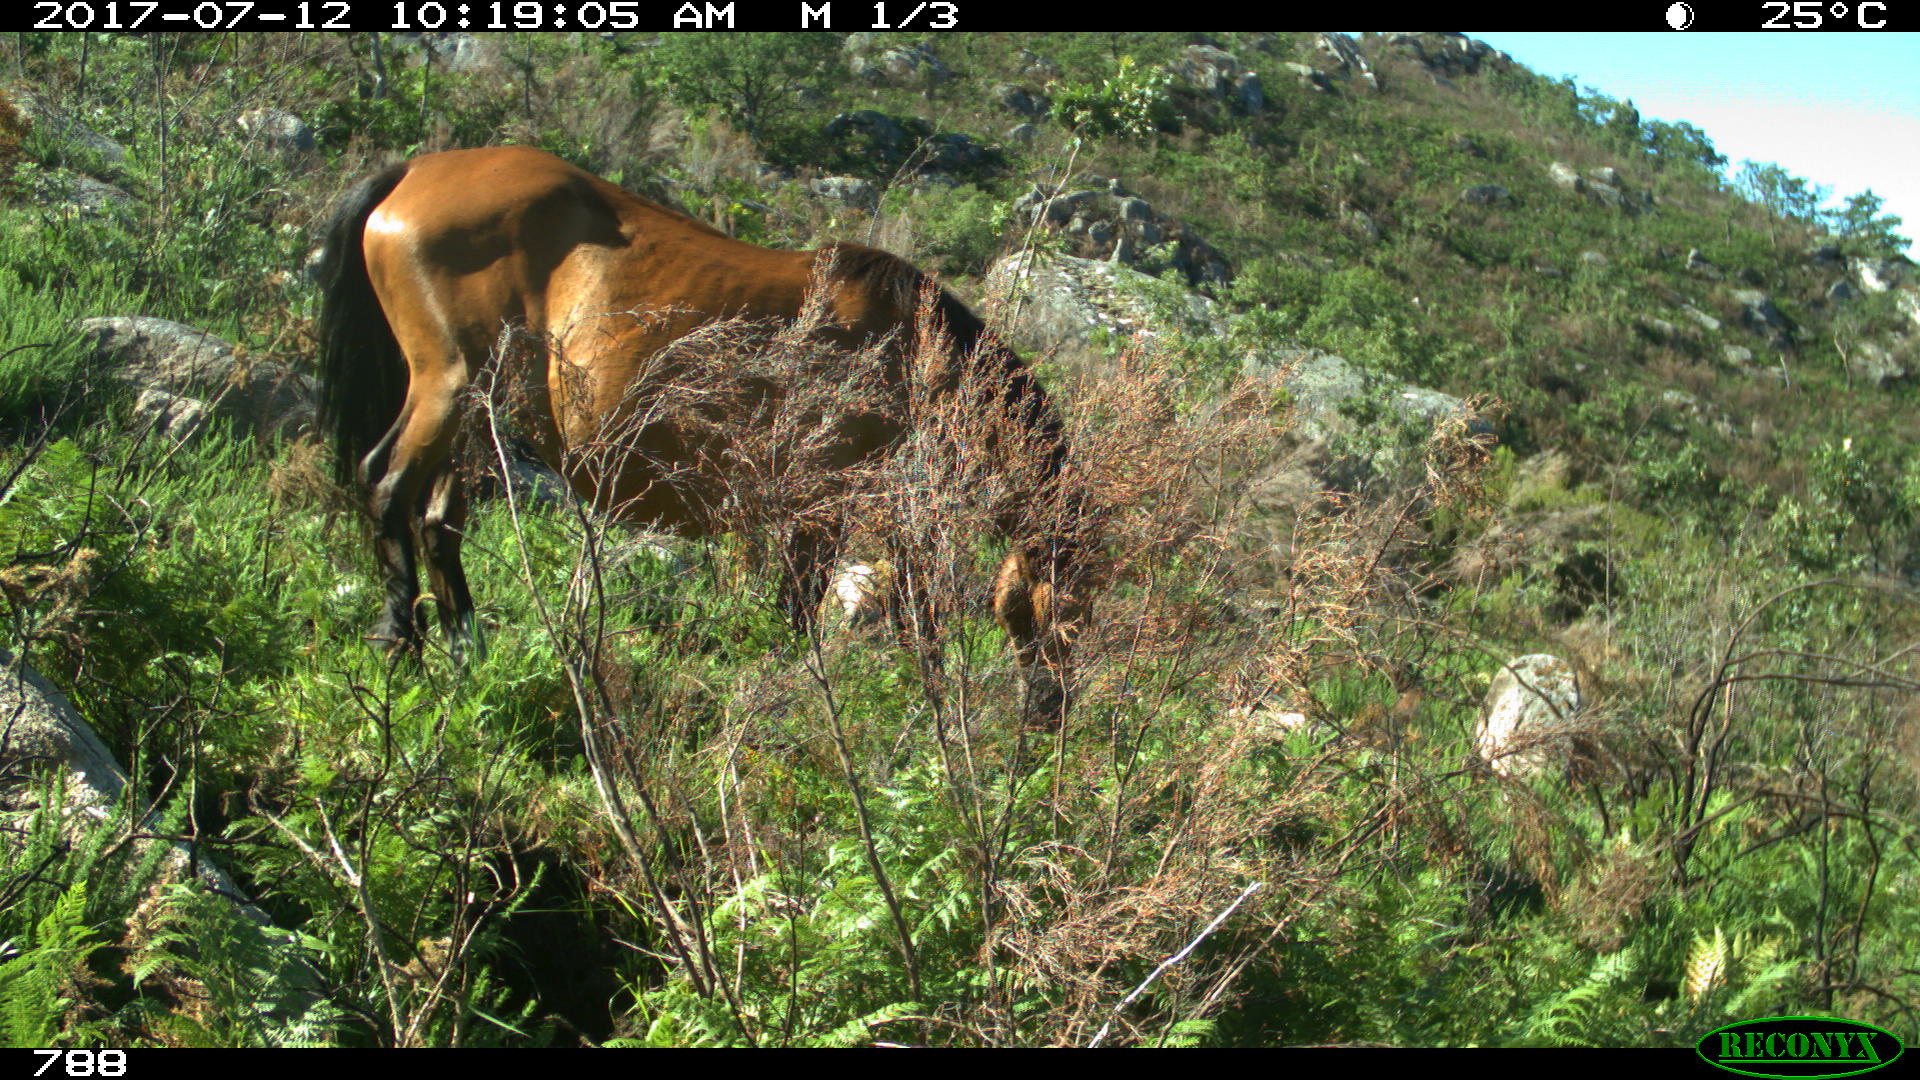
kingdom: Animalia
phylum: Chordata
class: Mammalia
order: Perissodactyla
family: Equidae
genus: Equus
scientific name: Equus caballus
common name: Horse
